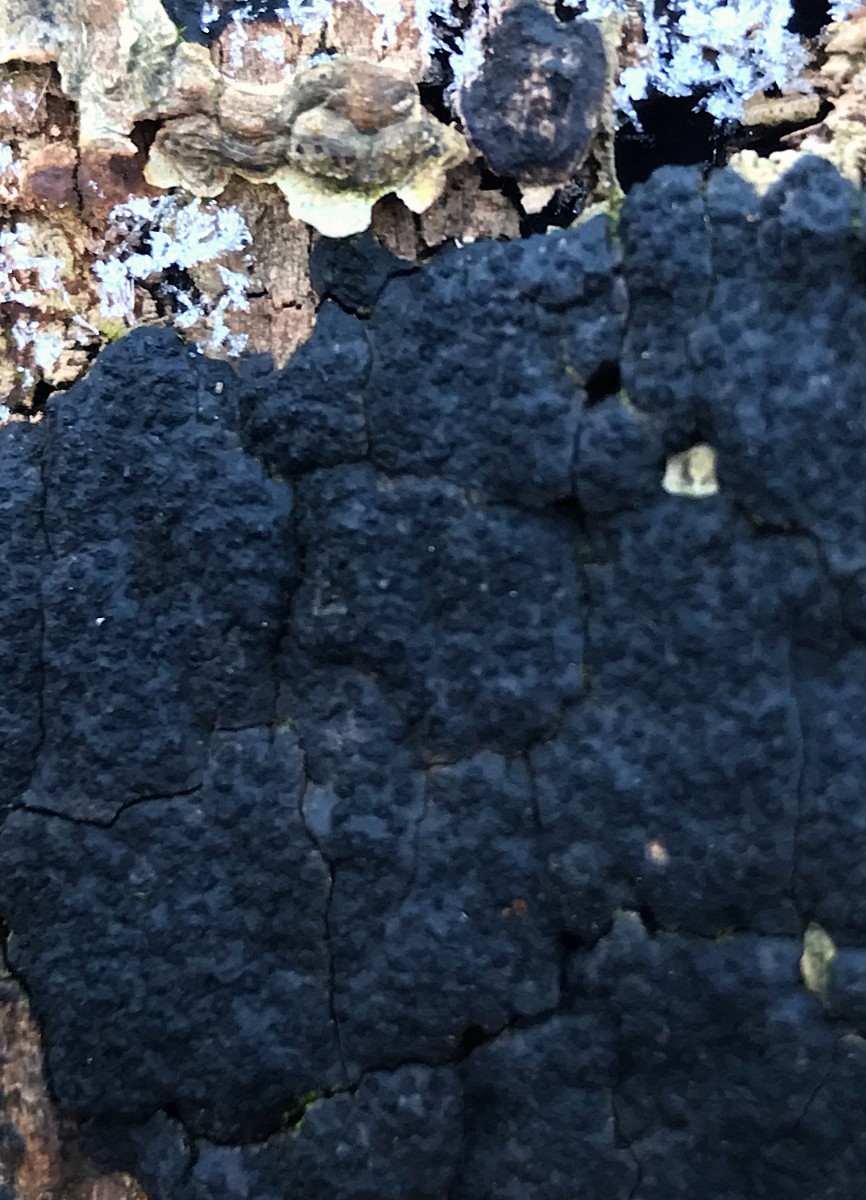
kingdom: Fungi
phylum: Ascomycota
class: Sordariomycetes
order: Xylariales
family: Diatrypaceae
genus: Eutypa
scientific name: Eutypa spinosa
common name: grov kulskorpe
